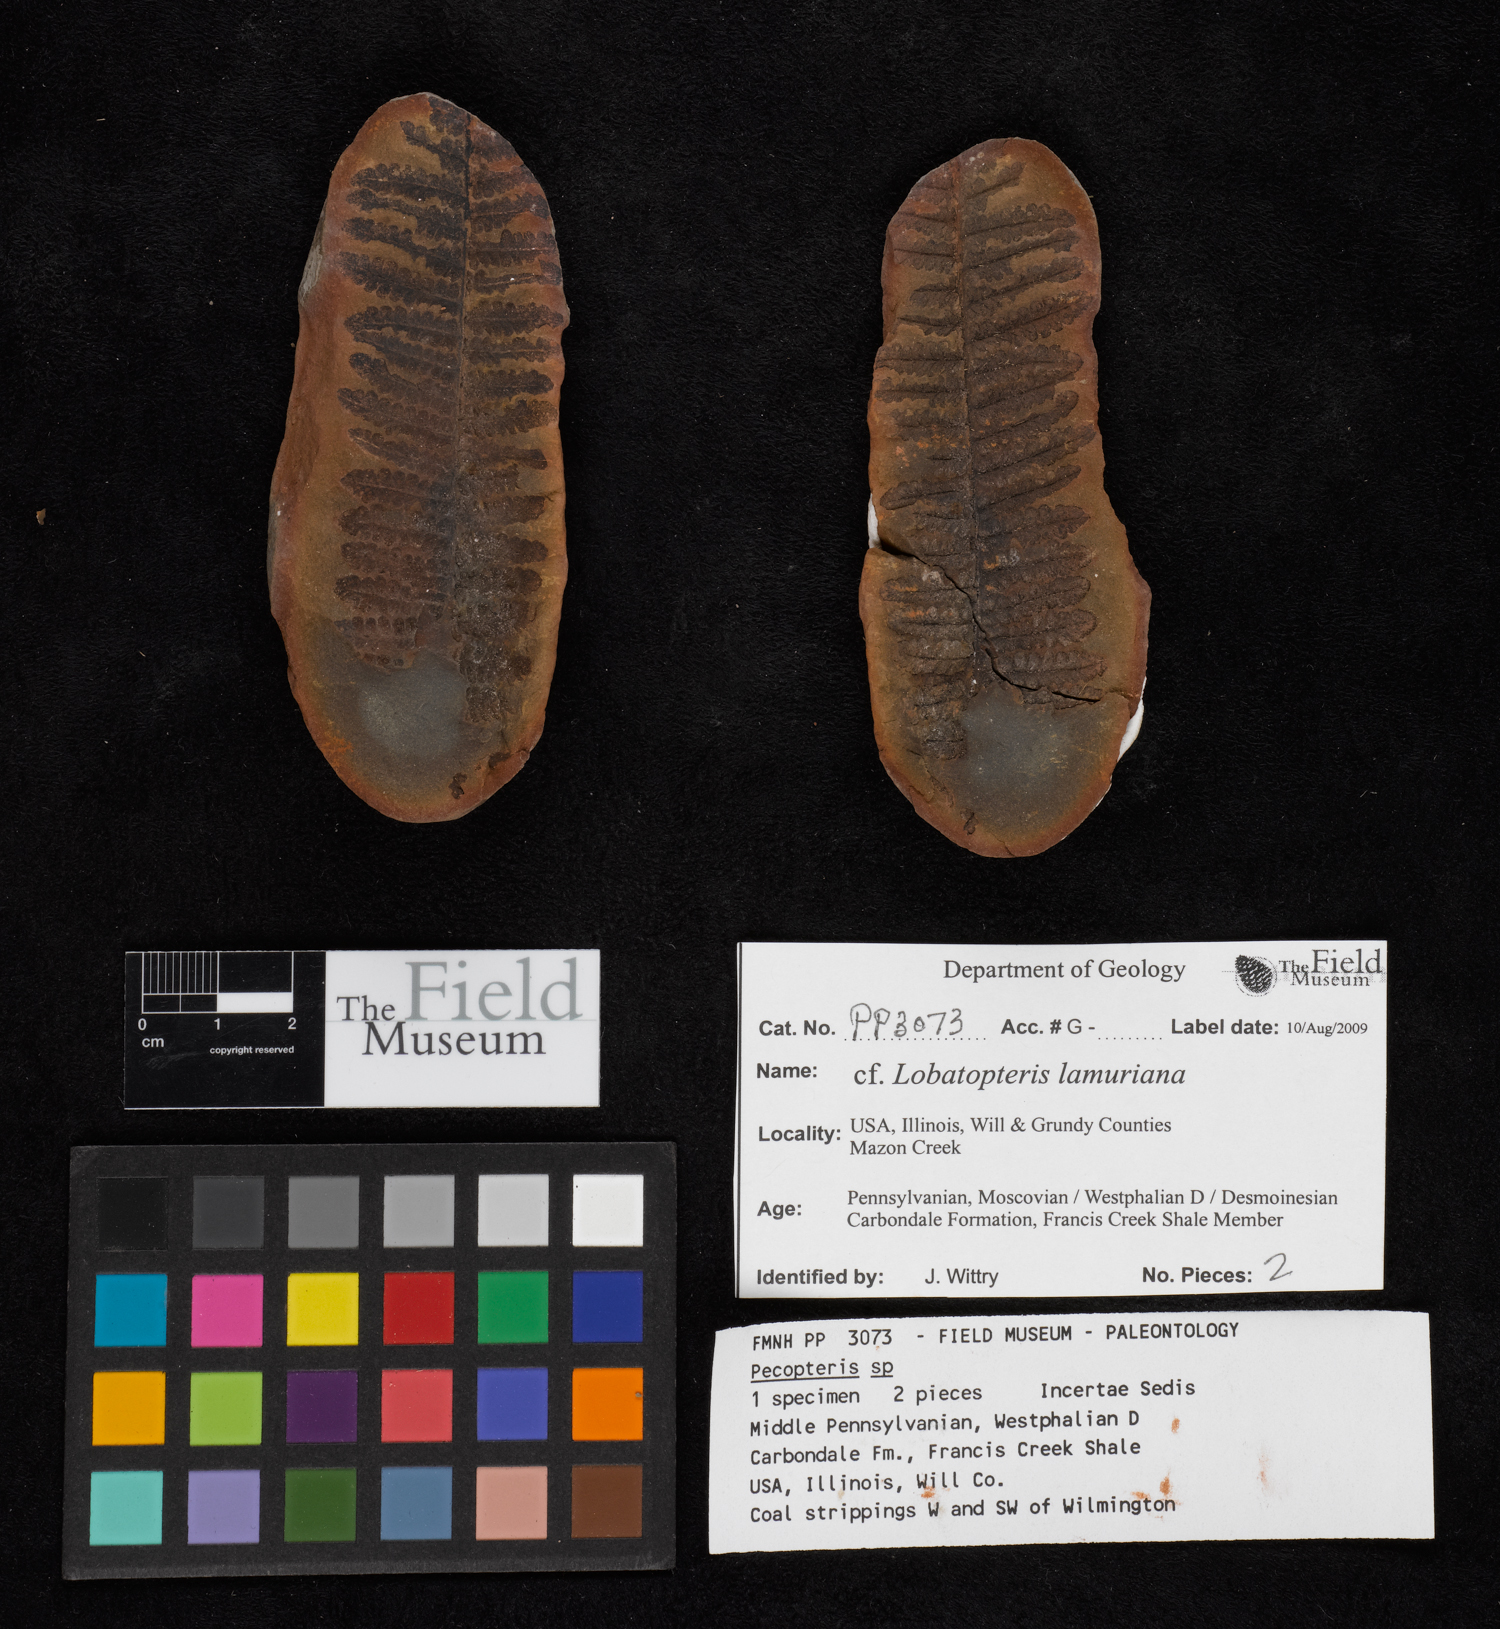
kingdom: Plantae
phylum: Tracheophyta
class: Polypodiopsida
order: Marattiales
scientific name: Marattiales
